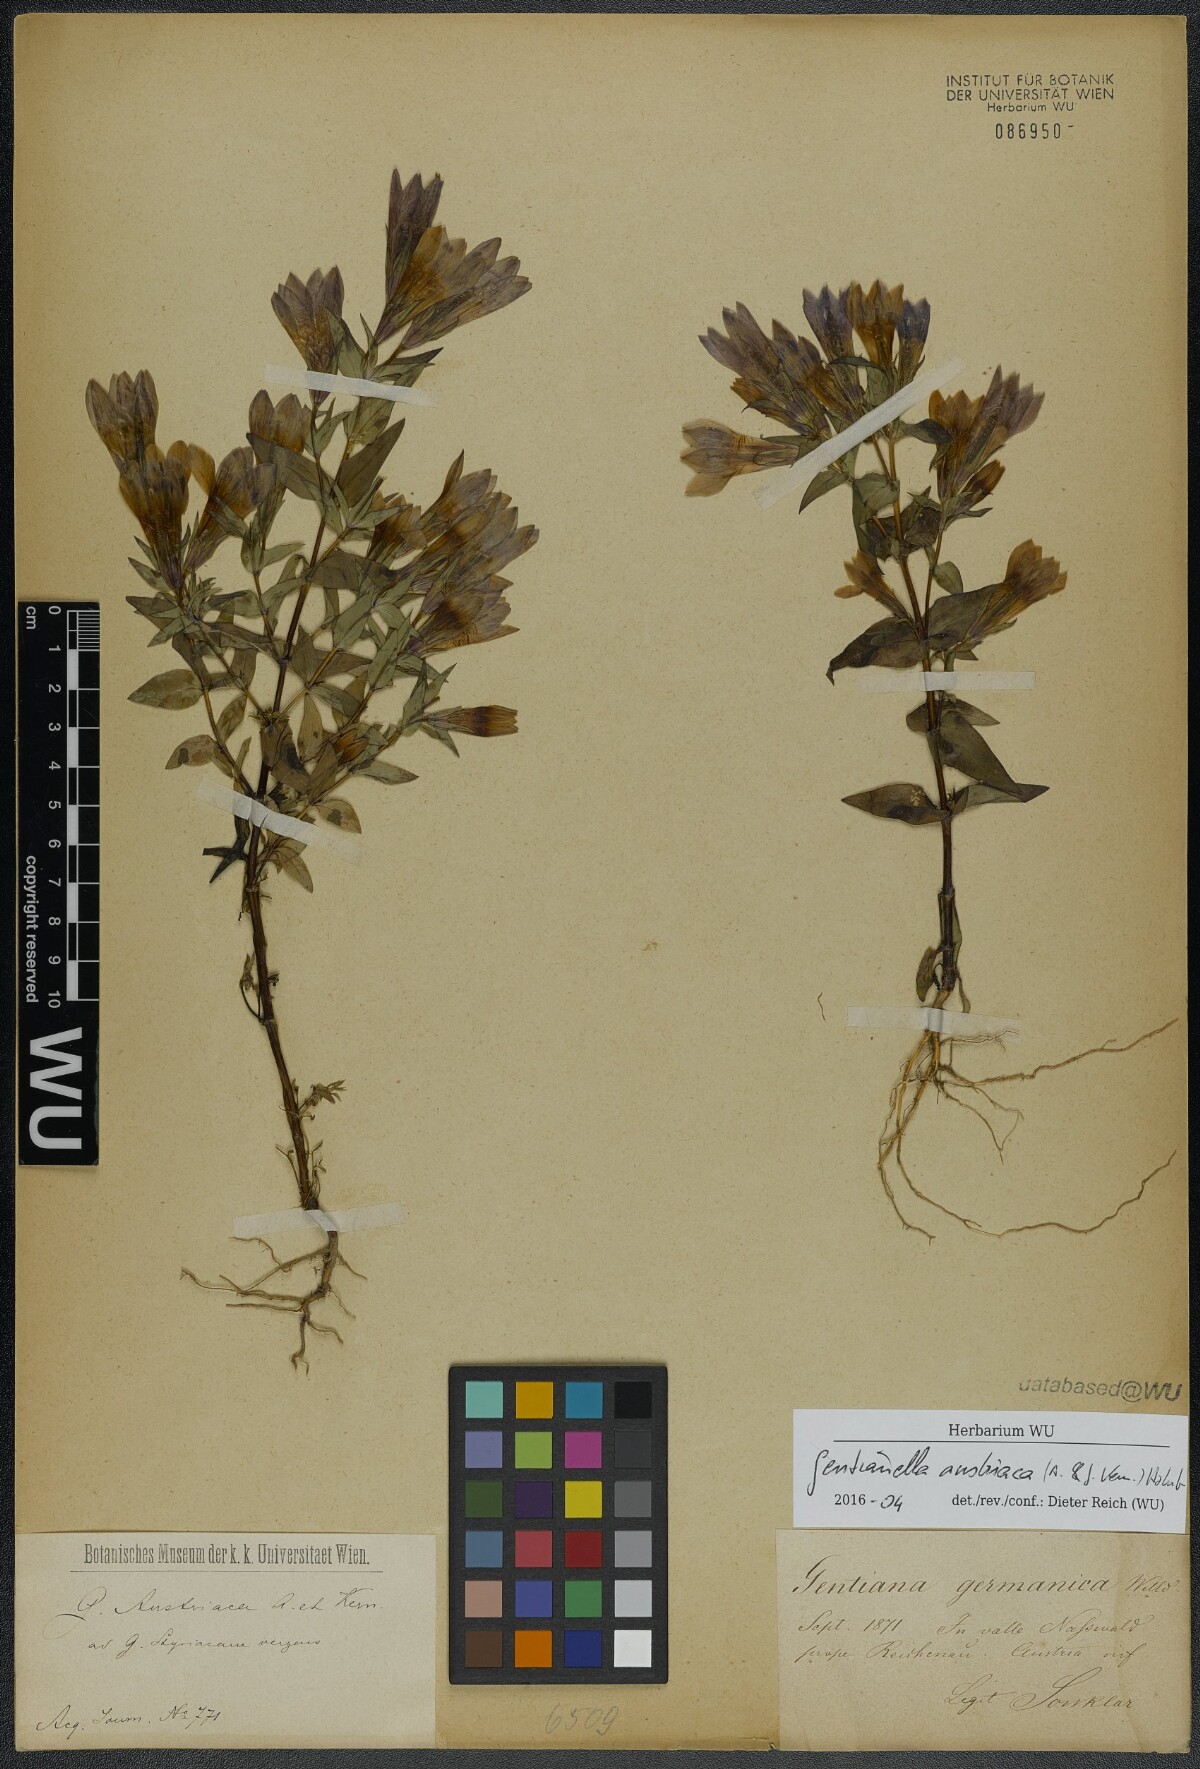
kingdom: Plantae
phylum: Tracheophyta
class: Magnoliopsida
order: Gentianales
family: Gentianaceae
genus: Gentianella
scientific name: Gentianella austriaca
